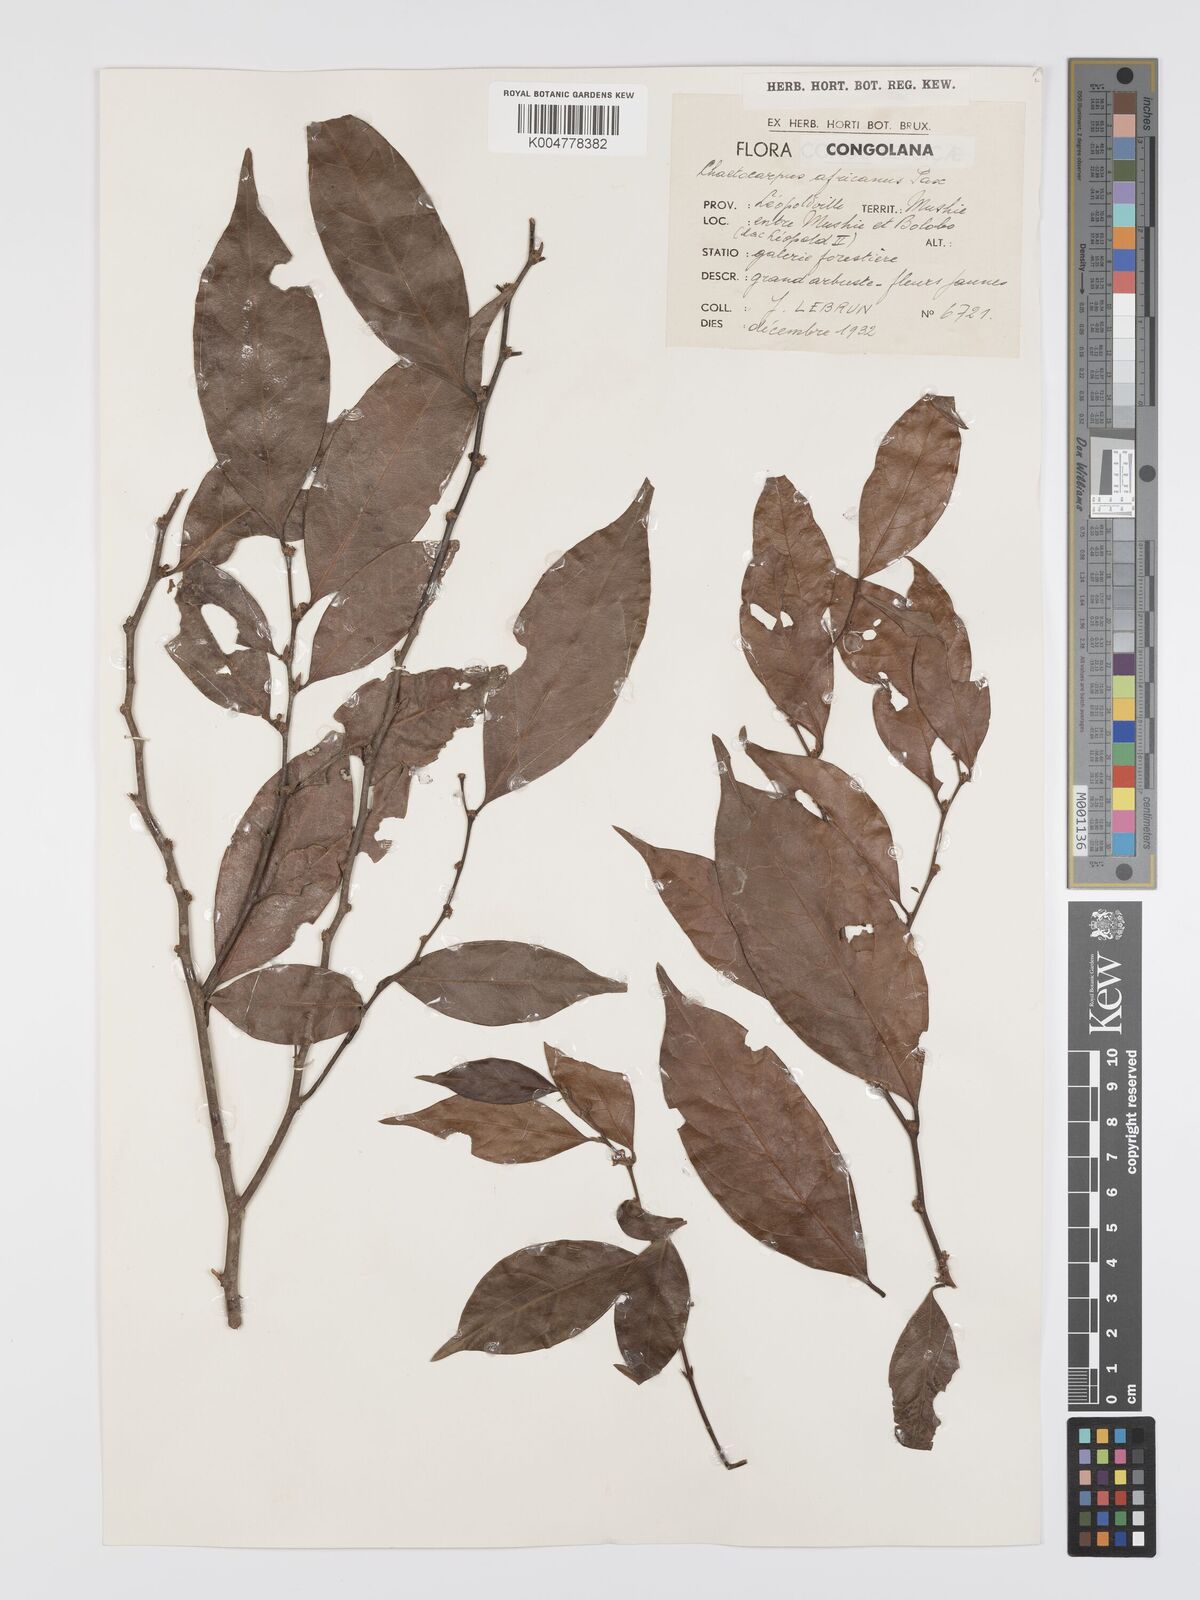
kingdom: Plantae
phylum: Tracheophyta
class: Magnoliopsida
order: Malpighiales
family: Peraceae
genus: Chaetocarpus
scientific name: Chaetocarpus africanus
